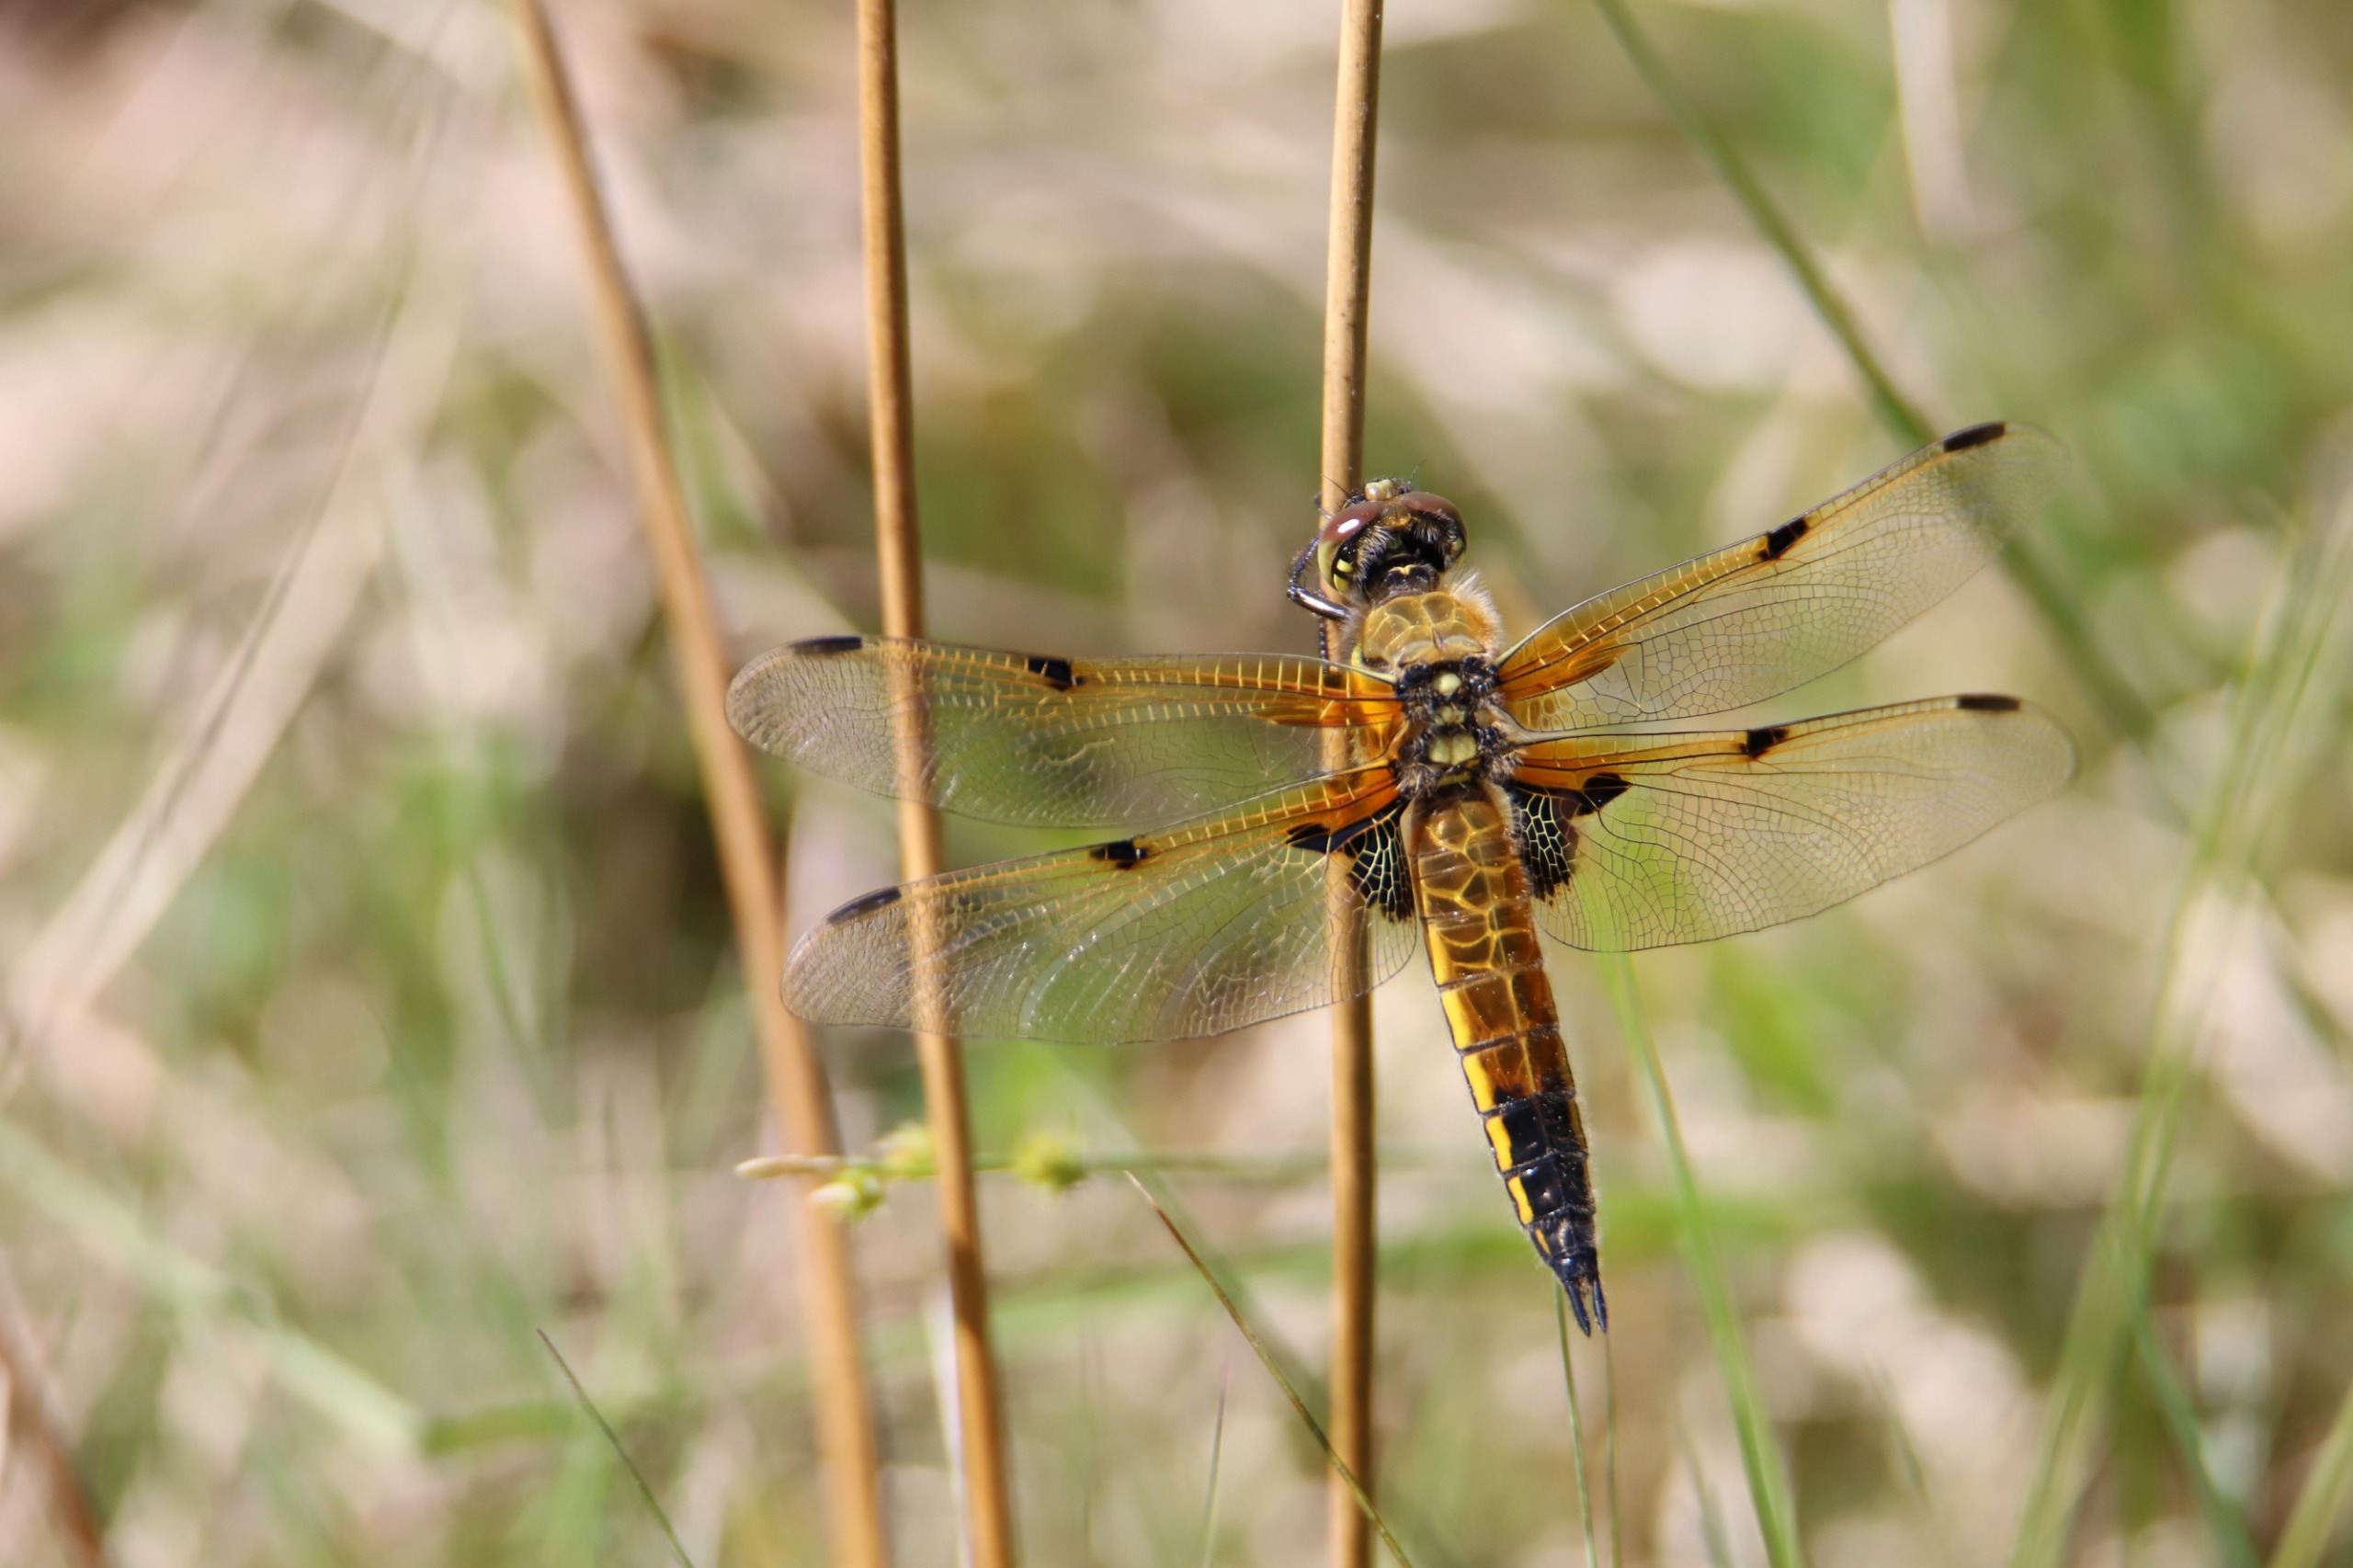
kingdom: Animalia
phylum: Arthropoda
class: Insecta
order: Odonata
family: Libellulidae
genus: Libellula
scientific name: Libellula quadrimaculata
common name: Fireplettet libel
